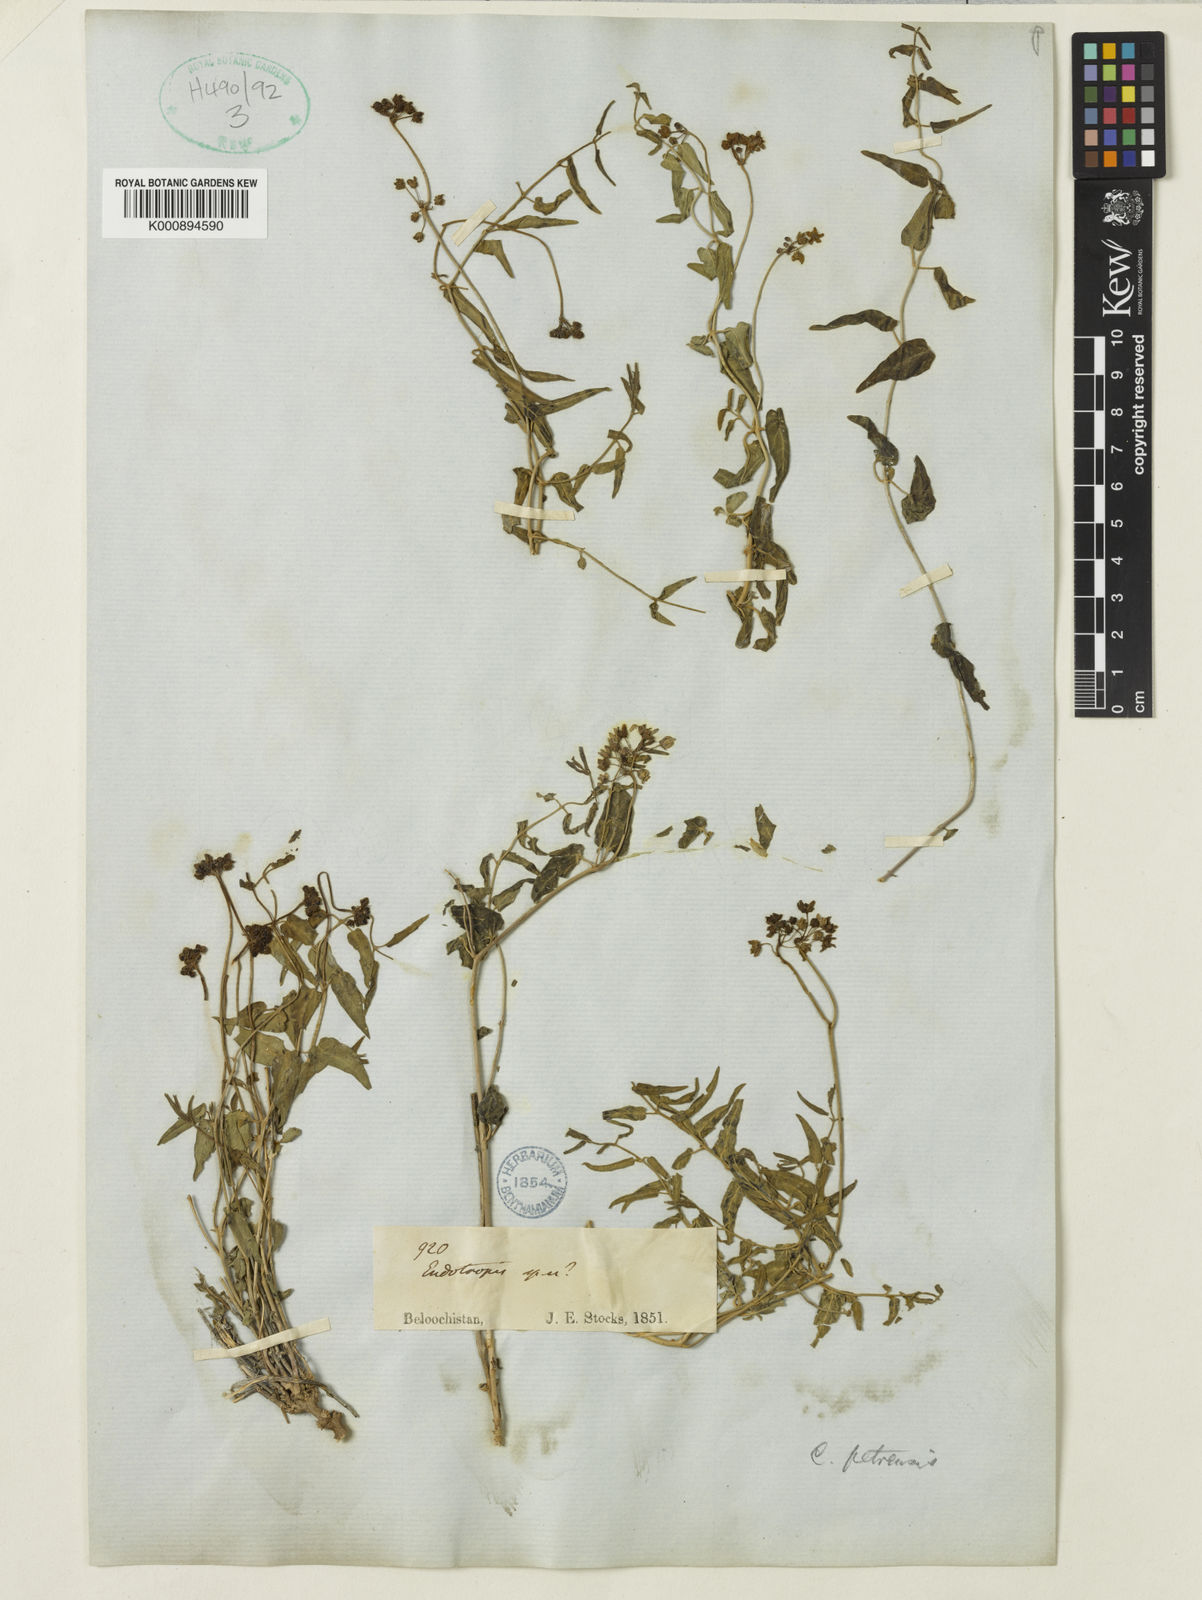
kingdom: Plantae
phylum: Tracheophyta
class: Magnoliopsida
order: Gentianales
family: Apocynaceae
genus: Vincetoxicum
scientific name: Vincetoxicum petrense
